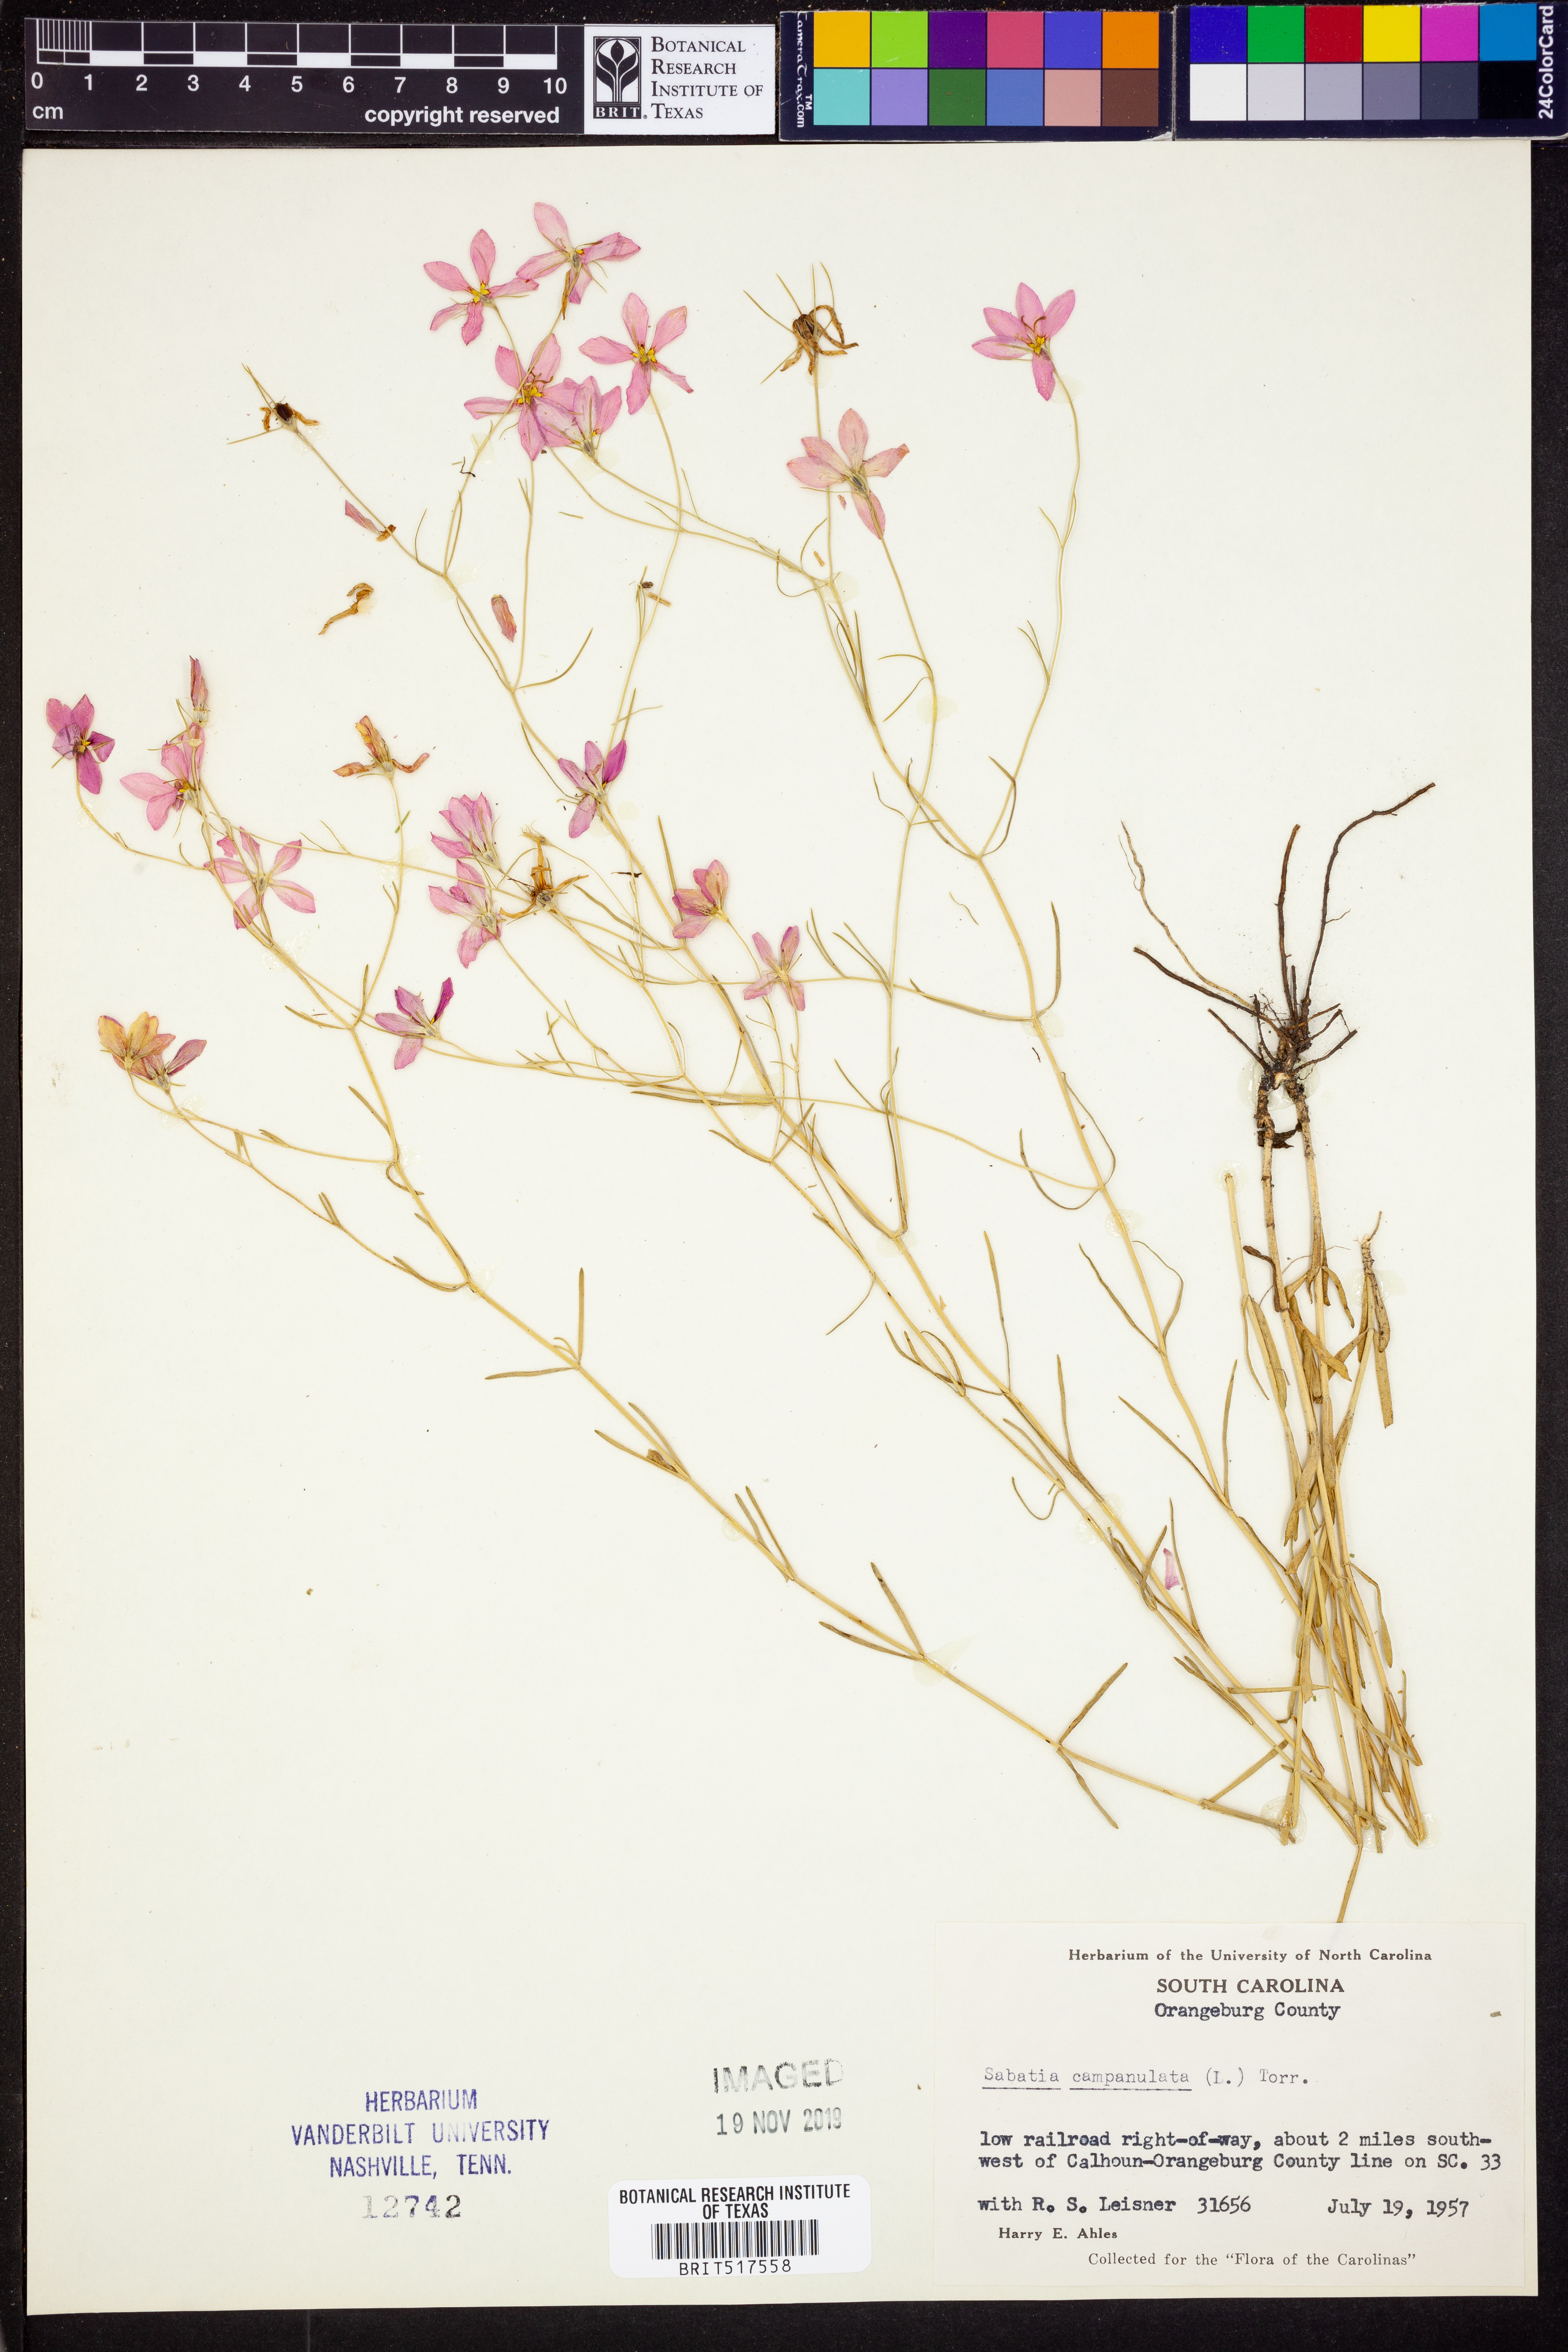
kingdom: Plantae
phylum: Tracheophyta
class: Magnoliopsida
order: Gentianales
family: Gentianaceae
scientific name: Gentianaceae
